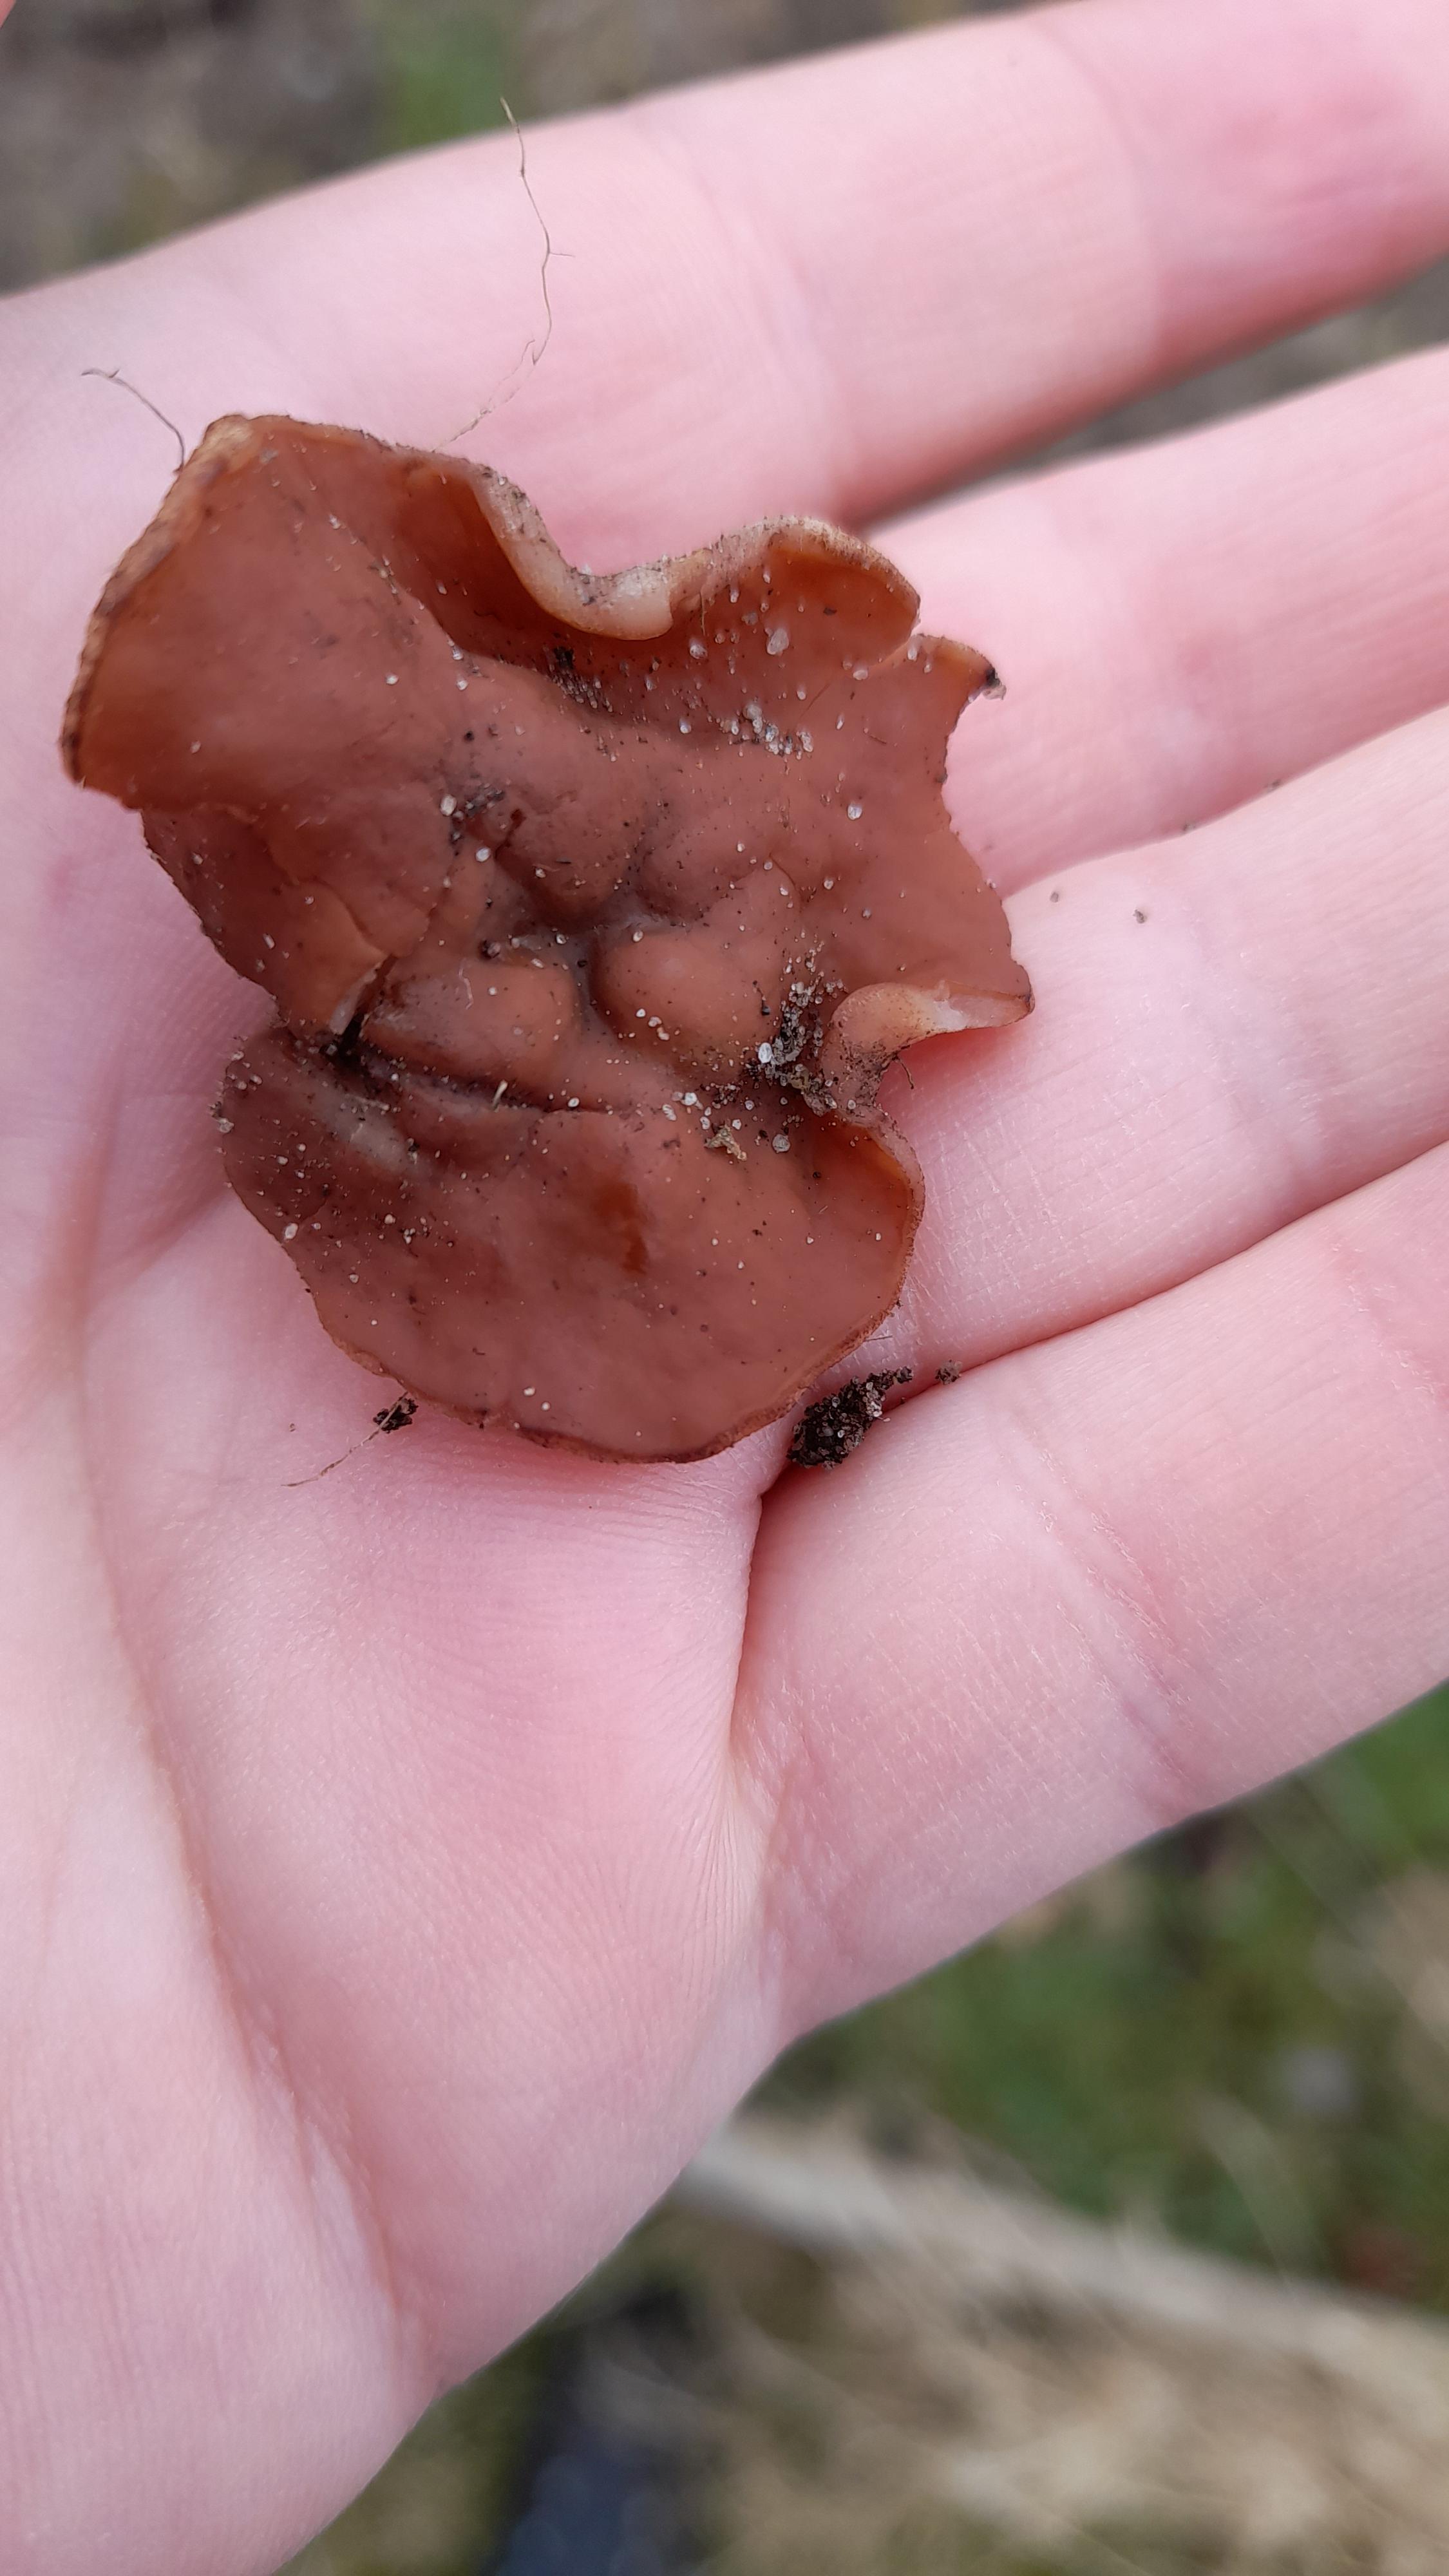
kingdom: Fungi
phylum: Ascomycota
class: Pezizomycetes
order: Pezizales
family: Discinaceae
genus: Discina
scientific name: Discina ancilis
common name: udbredt stenmorkel
